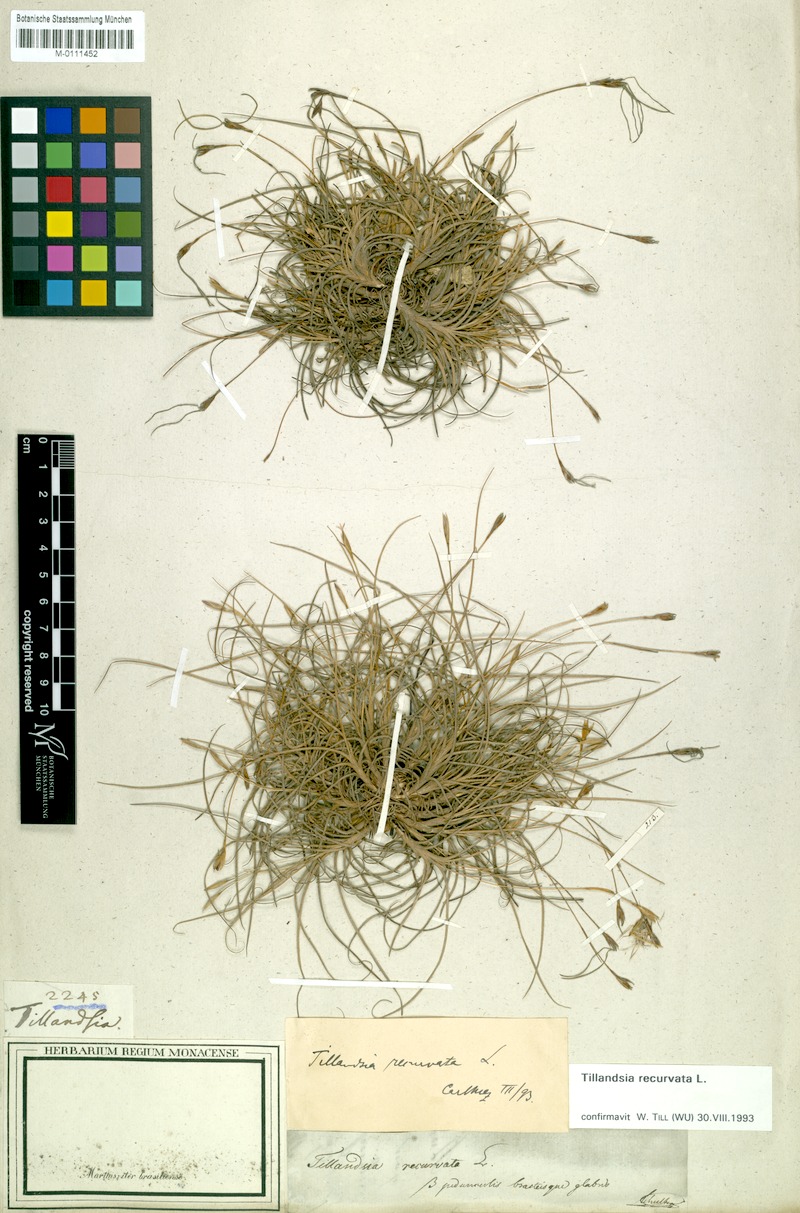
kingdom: Plantae
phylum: Tracheophyta
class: Liliopsida
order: Poales
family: Bromeliaceae
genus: Tillandsia
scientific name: Tillandsia recurvata
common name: Small ballmoss
